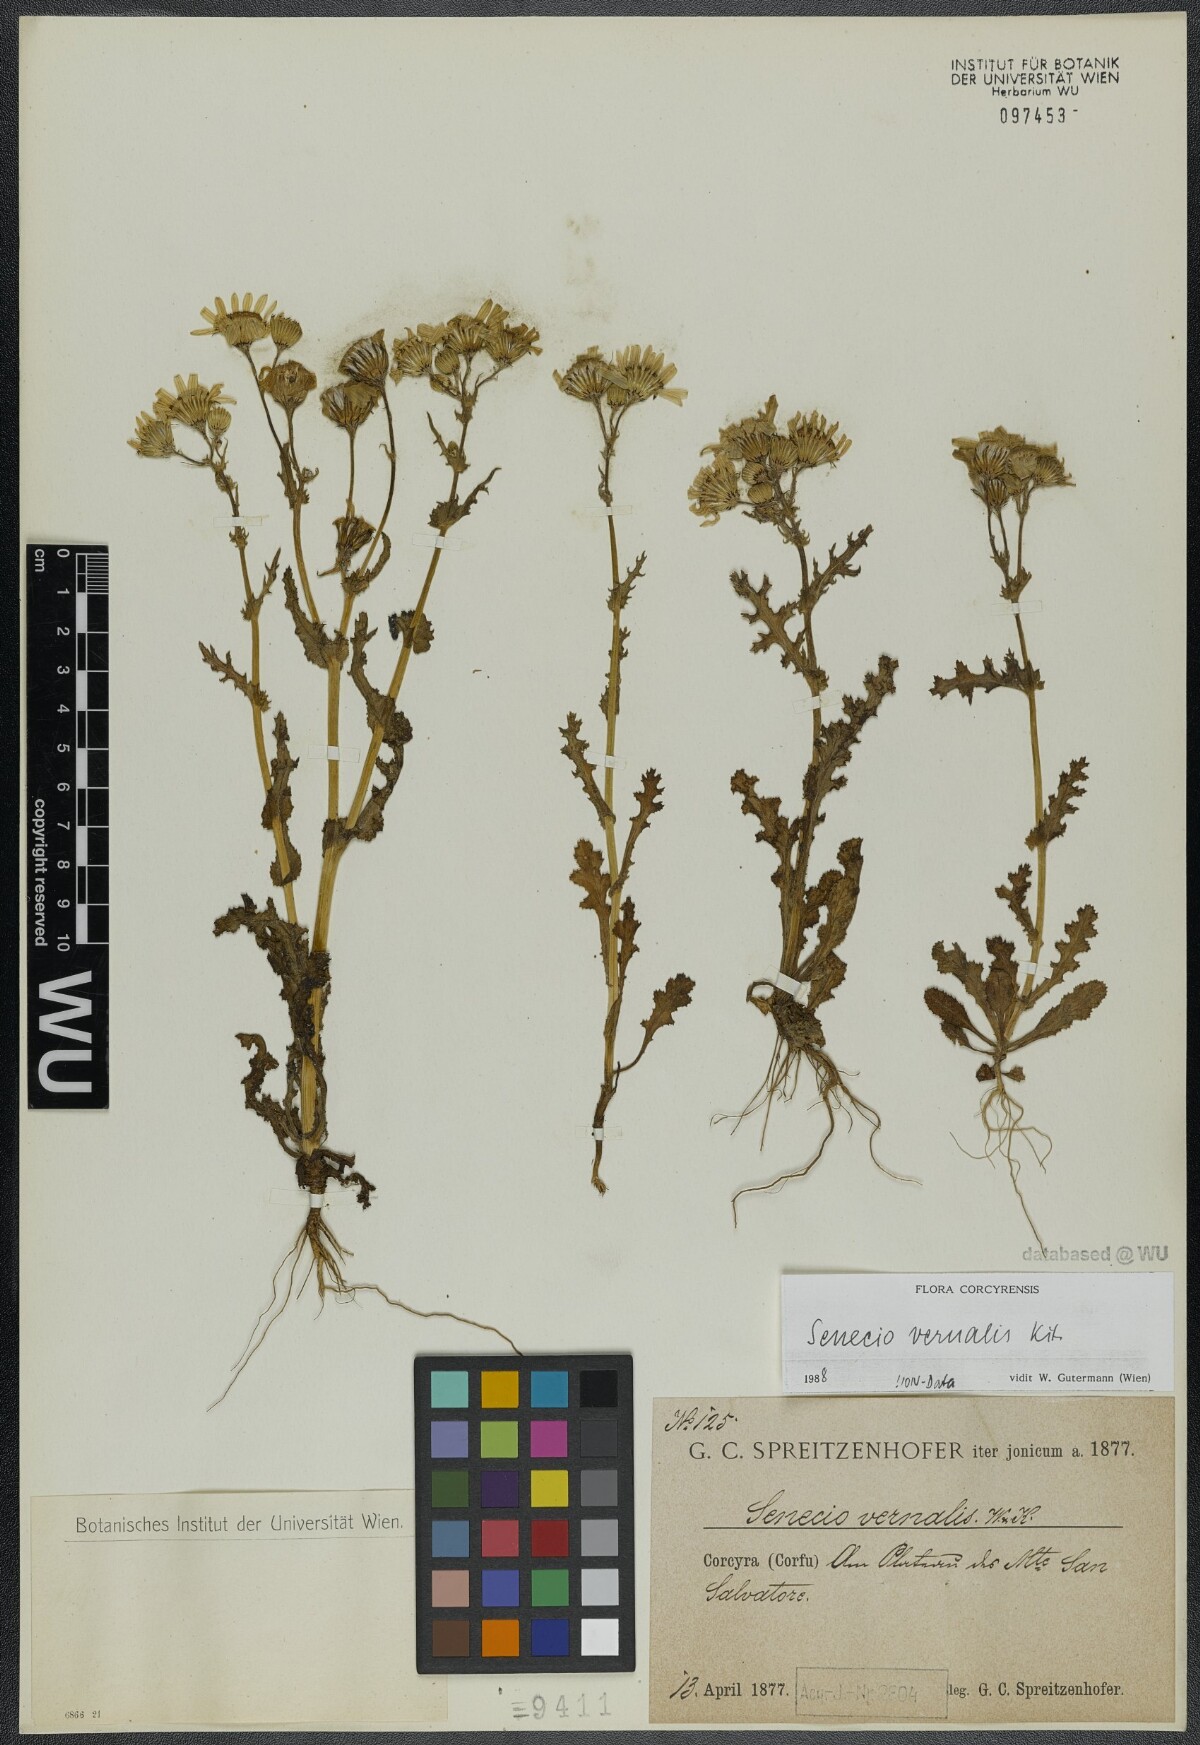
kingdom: Plantae
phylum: Tracheophyta
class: Magnoliopsida
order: Asterales
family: Asteraceae
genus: Senecio
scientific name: Senecio vernalis
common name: Eastern groundsel
